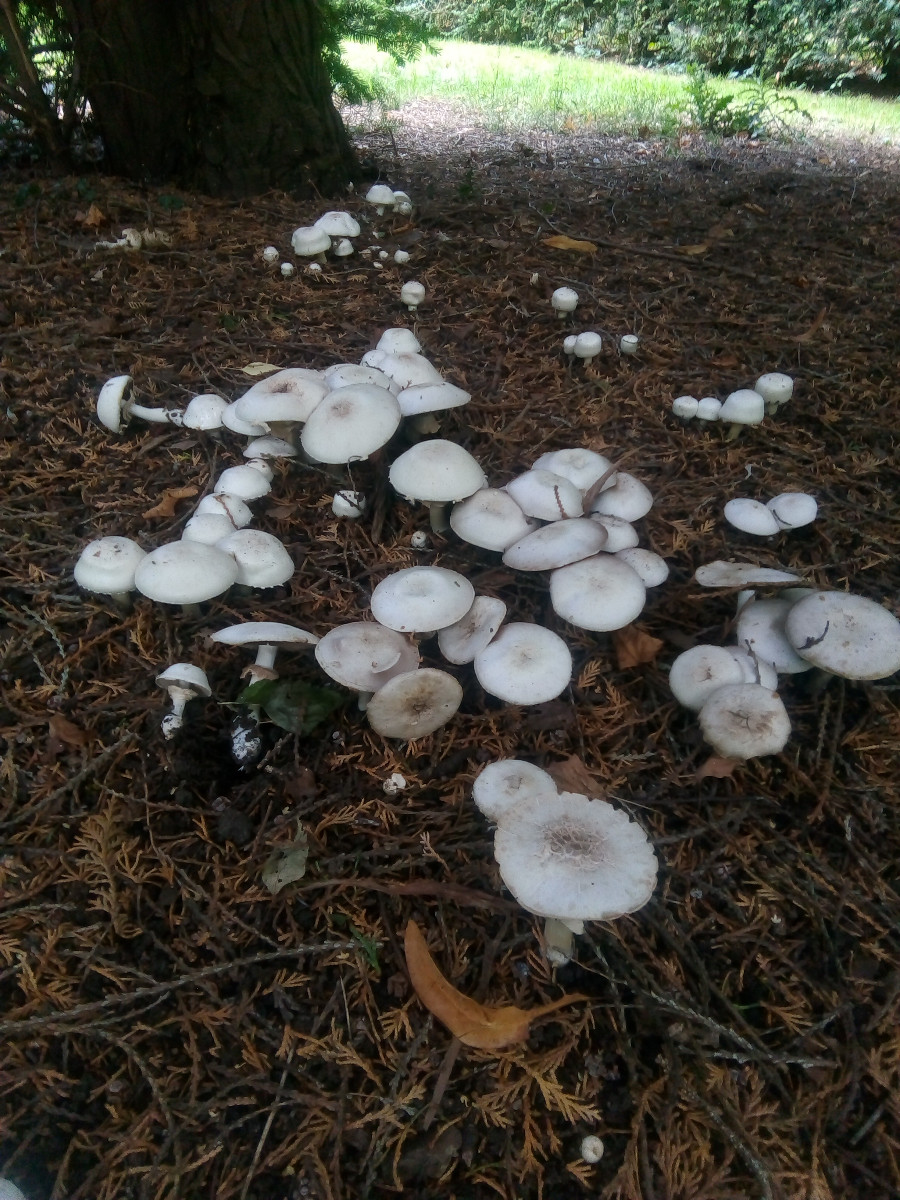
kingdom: Fungi
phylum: Basidiomycota
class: Agaricomycetes
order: Agaricales
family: Agaricaceae
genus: Agaricus
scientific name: Agaricus xanthodermus
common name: karbol-champignon
